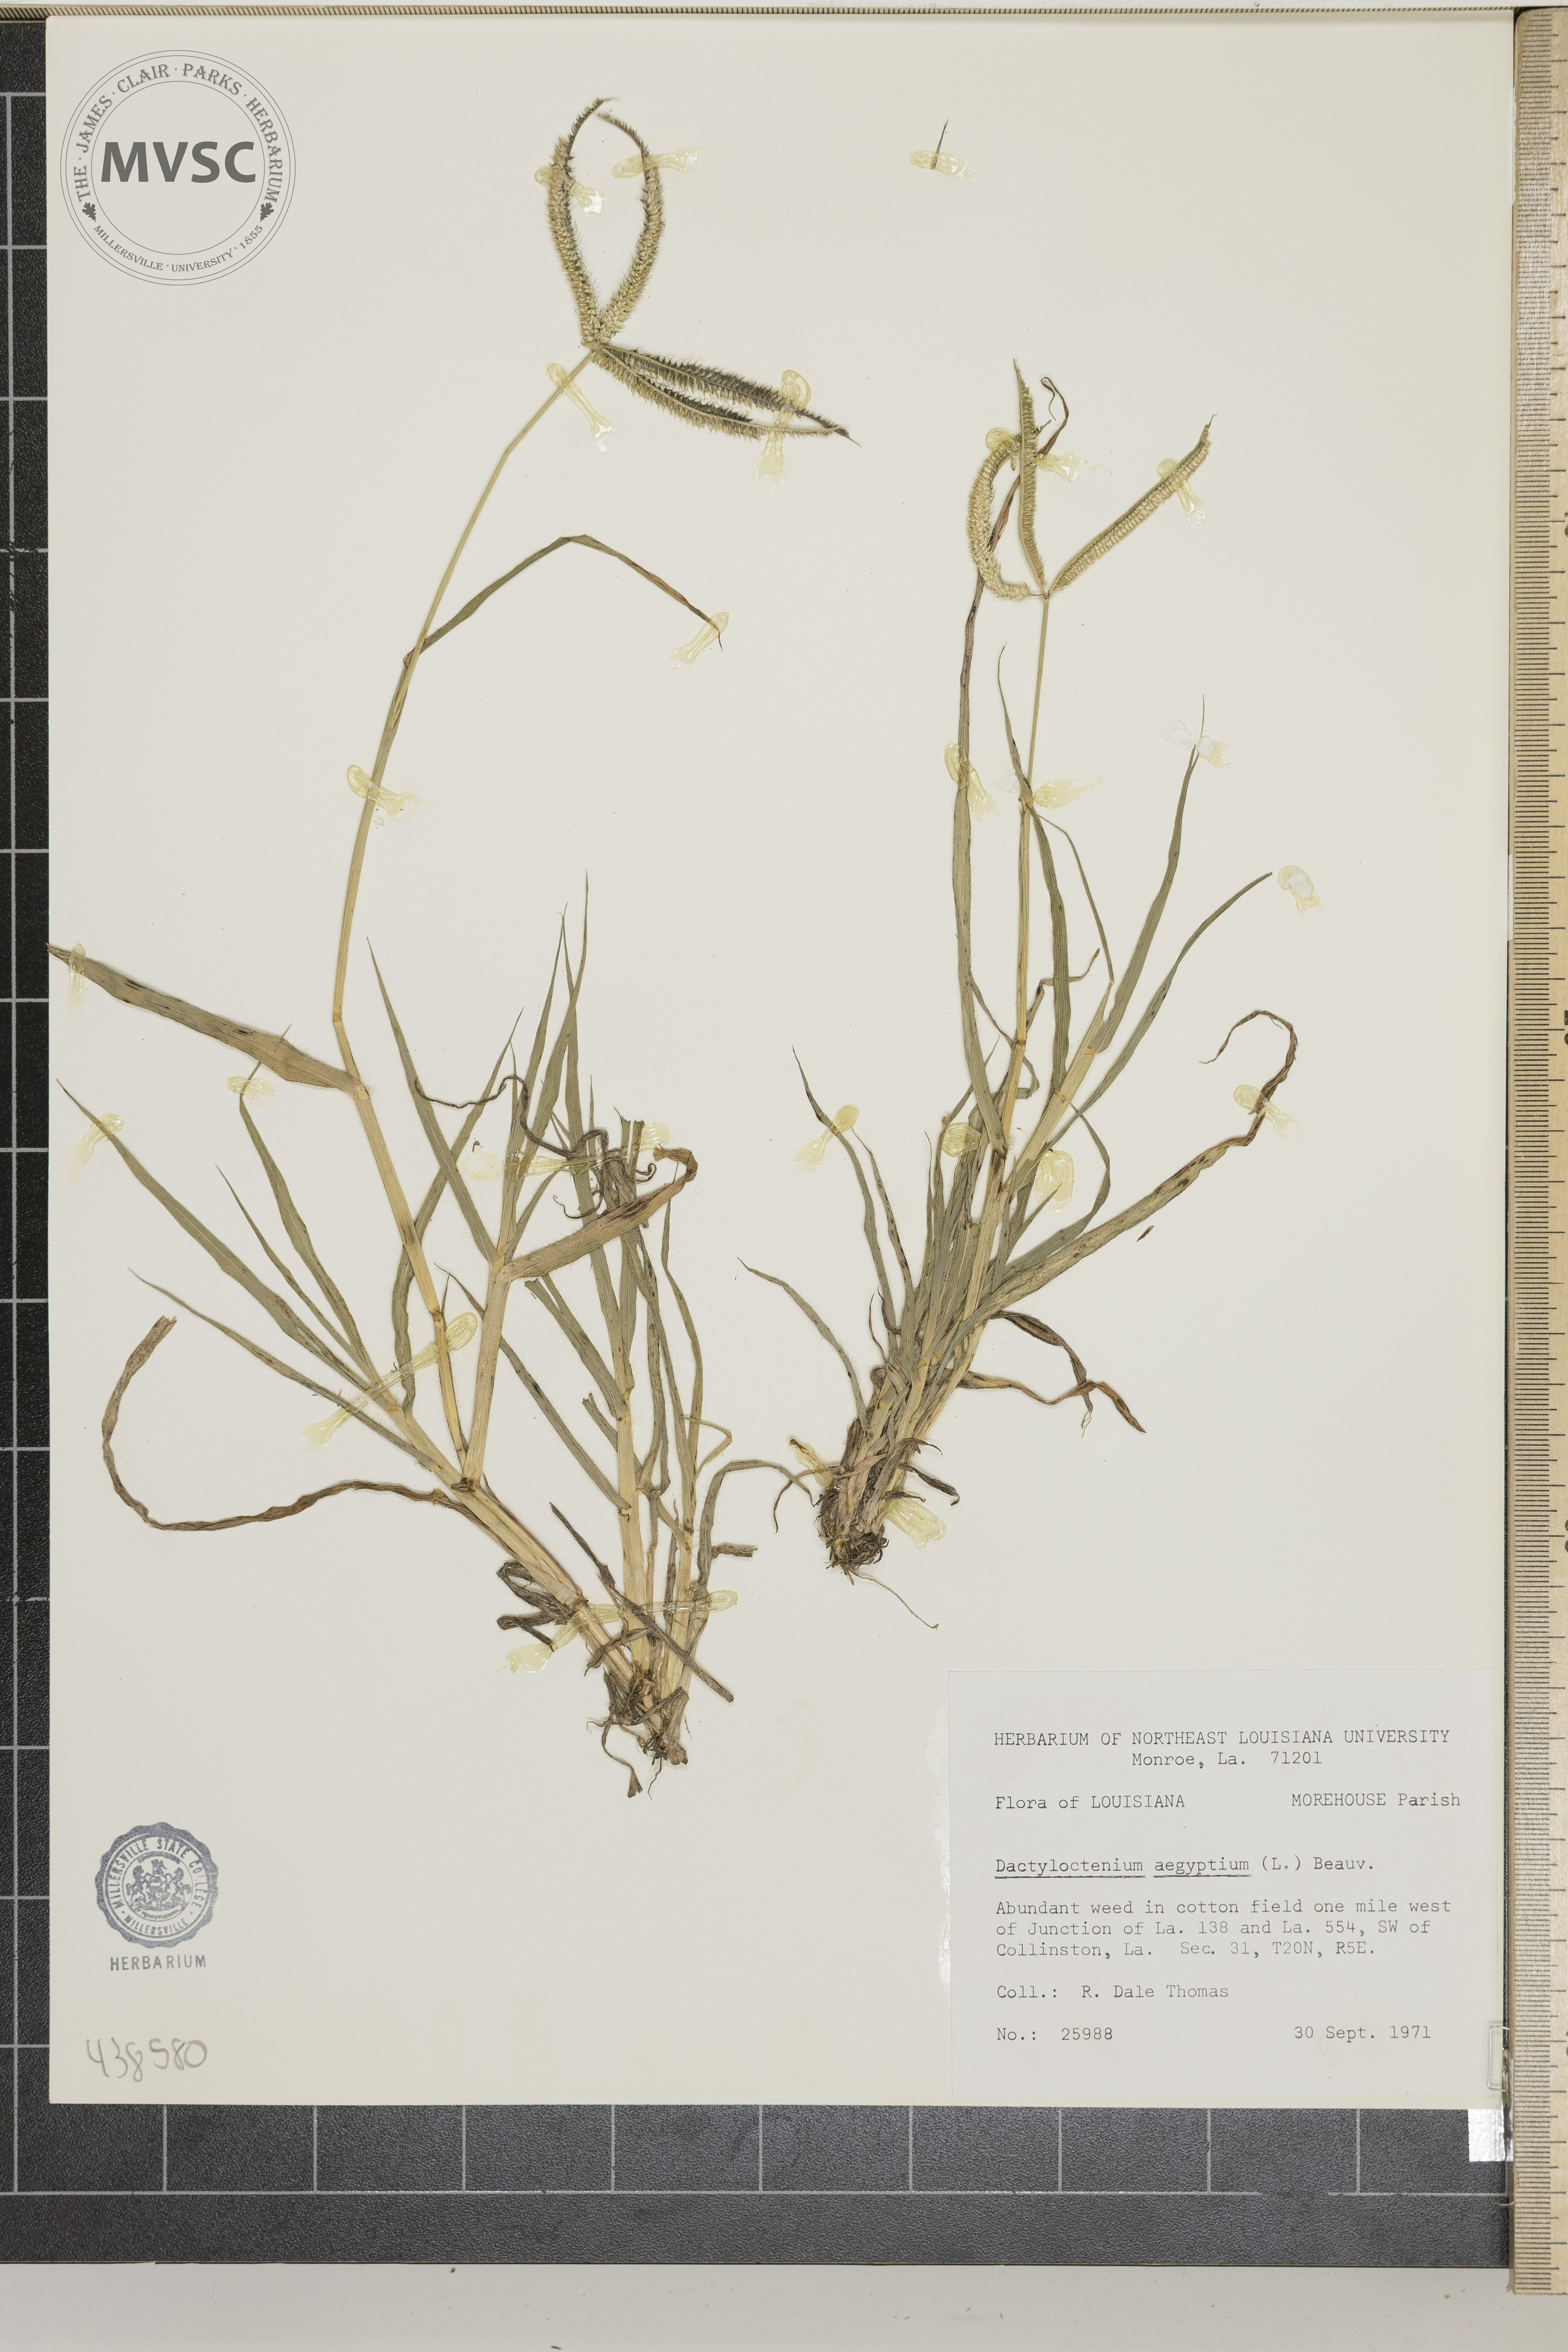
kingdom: Plantae
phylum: Tracheophyta
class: Liliopsida
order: Poales
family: Poaceae
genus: Dactyloctenium
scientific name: Dactyloctenium aegyptium
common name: Egyptian grass
